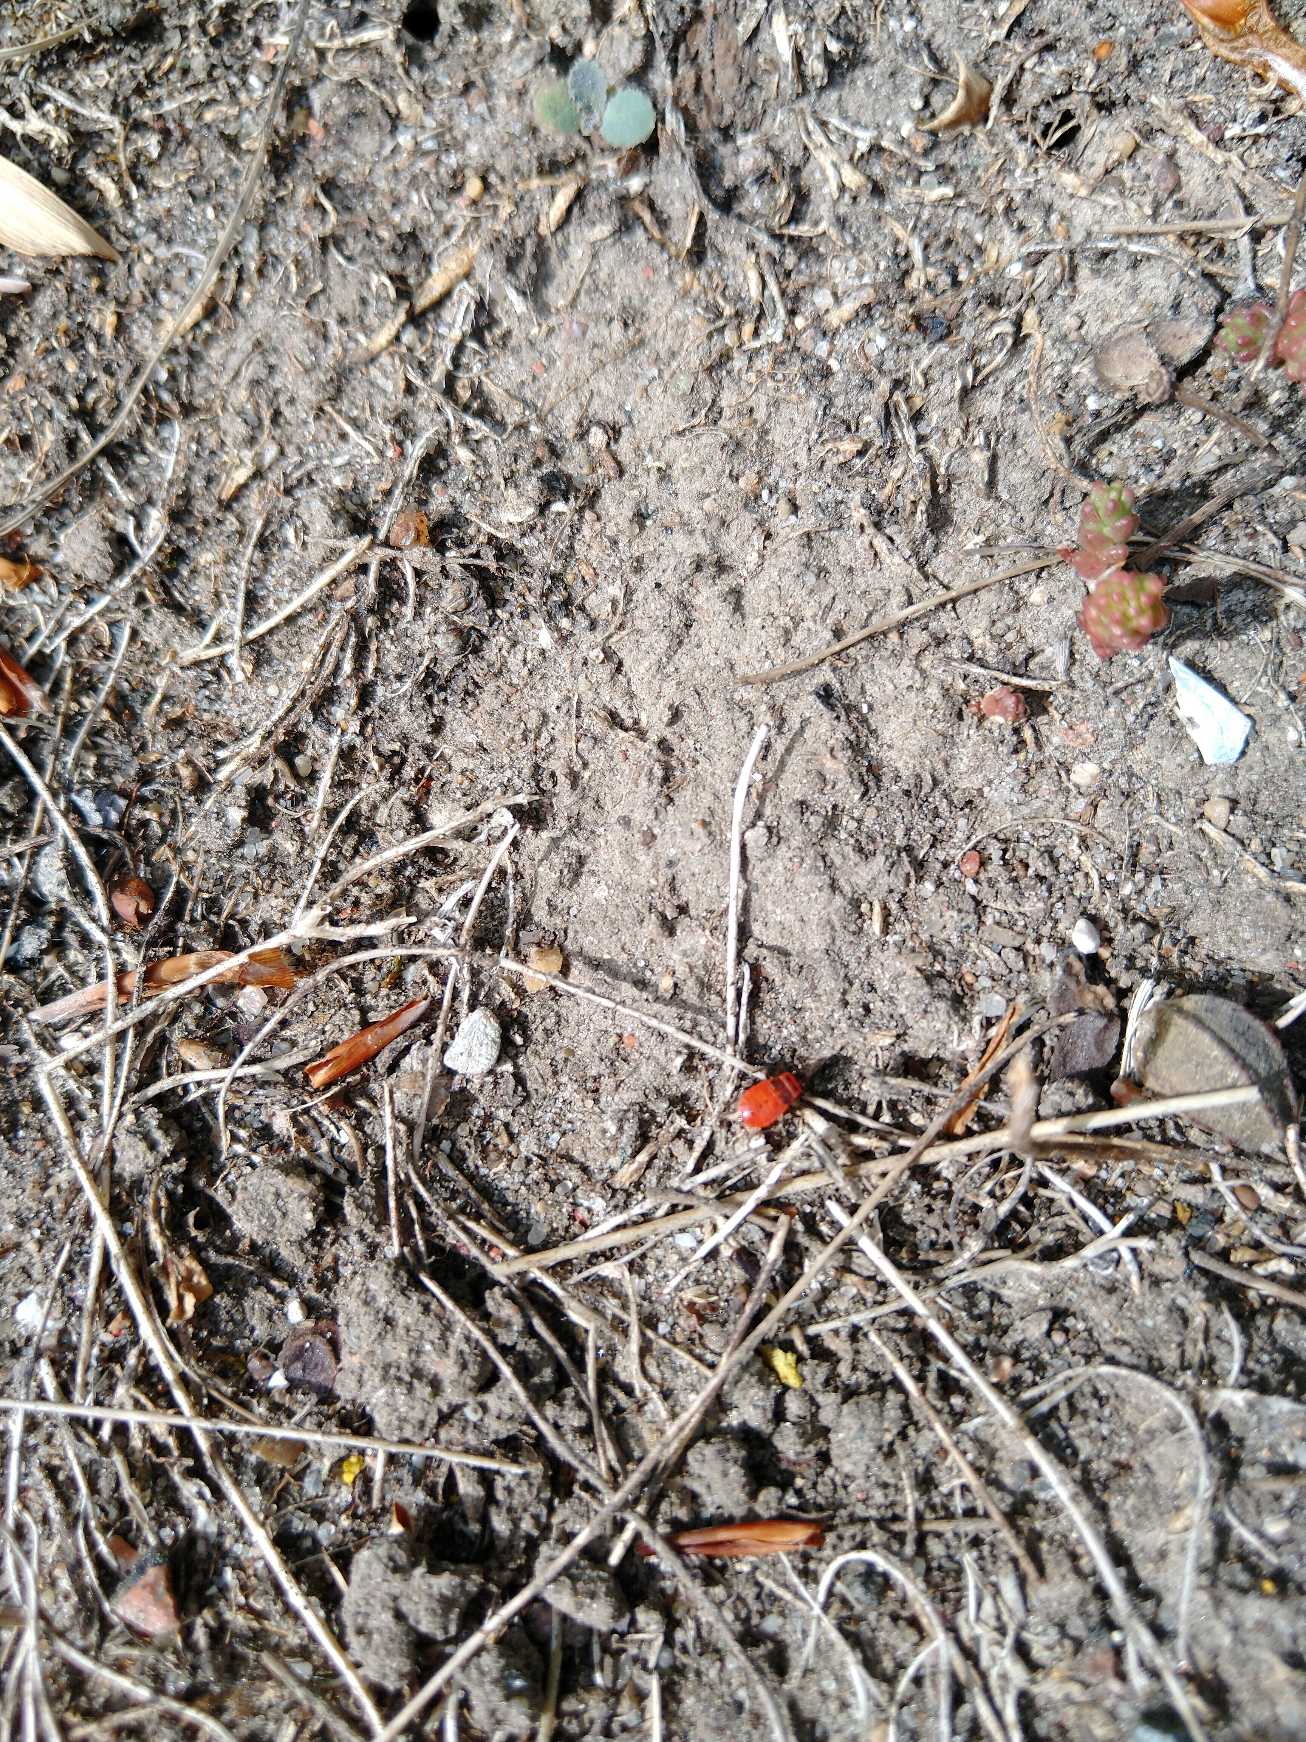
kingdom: Animalia
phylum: Arthropoda
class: Insecta
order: Hemiptera
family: Pyrrhocoridae
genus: Pyrrhocoris
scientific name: Pyrrhocoris apterus
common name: Ildtæge
